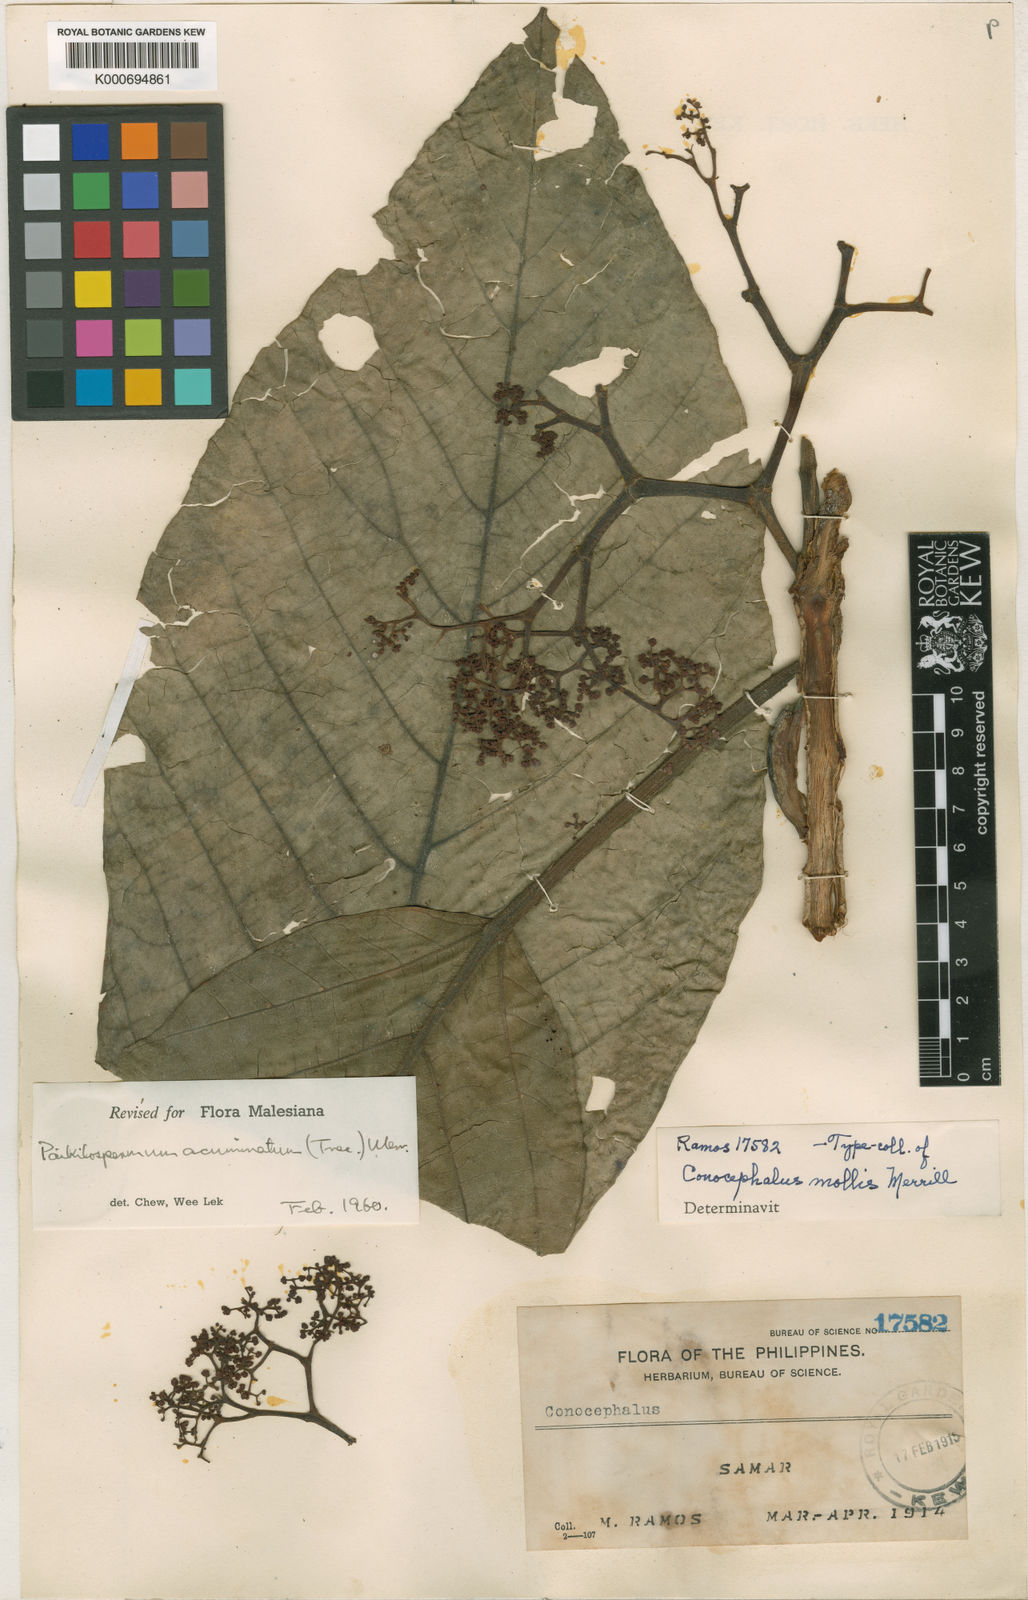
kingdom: Plantae
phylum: Tracheophyta
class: Magnoliopsida
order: Rosales
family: Urticaceae
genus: Poikilospermum
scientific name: Poikilospermum
